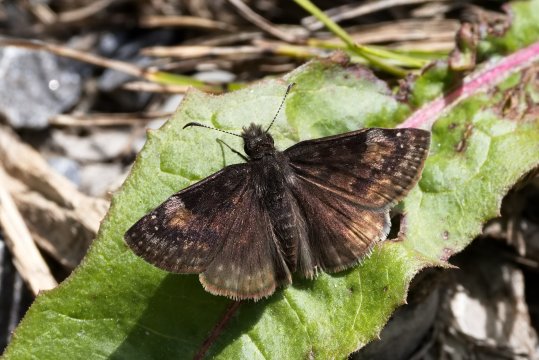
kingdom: Animalia
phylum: Arthropoda
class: Insecta
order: Lepidoptera
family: Hesperiidae
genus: Gesta
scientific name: Gesta
